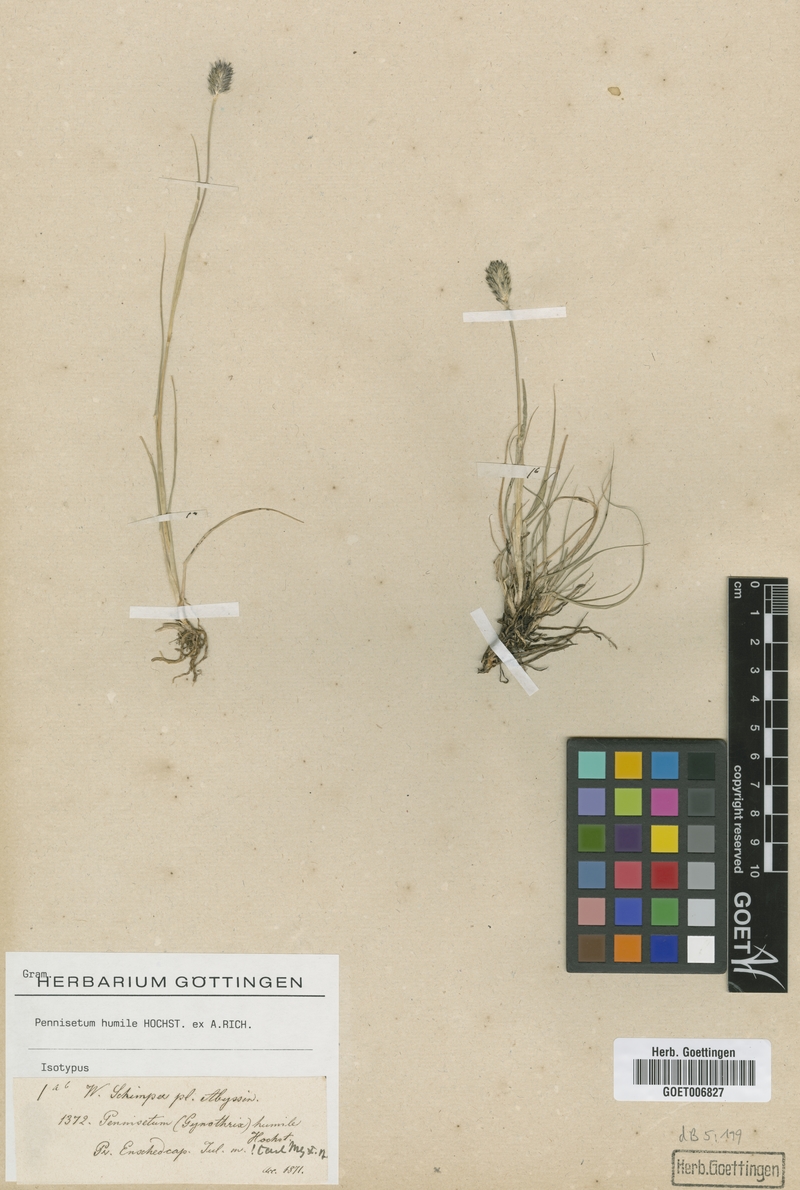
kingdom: Plantae
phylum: Tracheophyta
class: Liliopsida
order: Poales
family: Poaceae
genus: Cenchrus
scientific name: Cenchrus nanus
